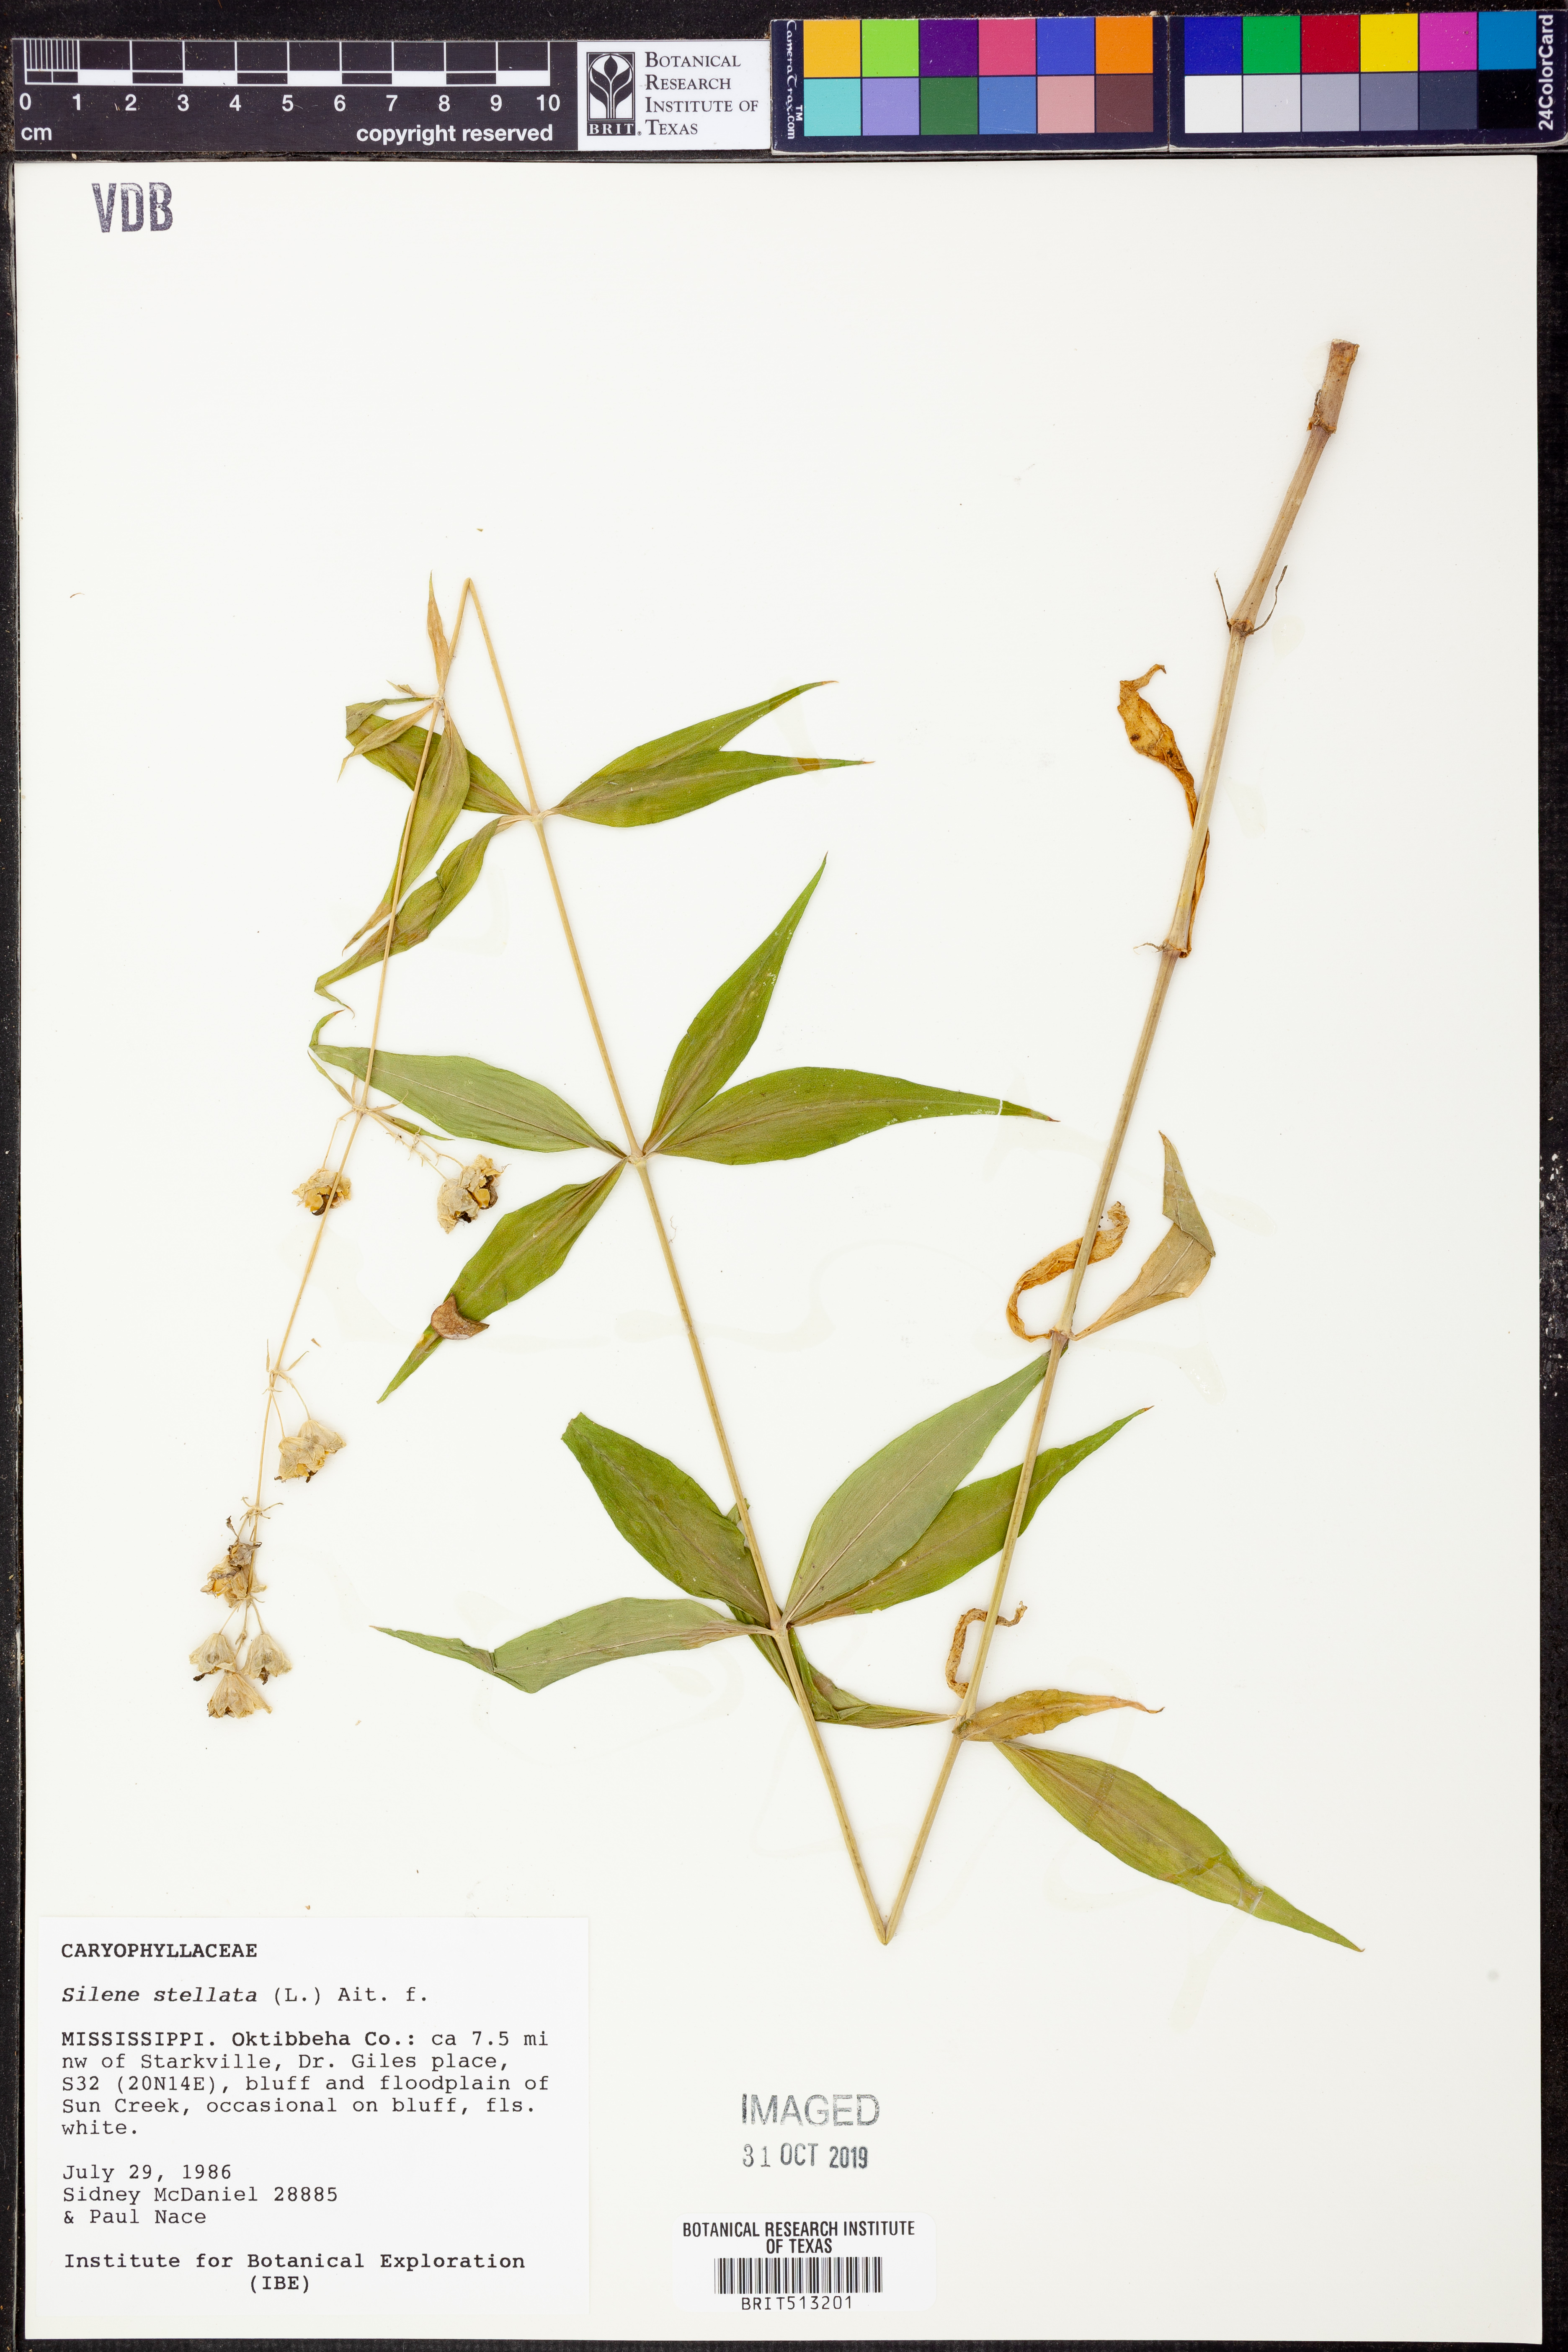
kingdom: Plantae
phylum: Tracheophyta
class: Magnoliopsida
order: Caryophyllales
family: Caryophyllaceae
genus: Silene
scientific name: Silene stellata
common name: Starry campion
